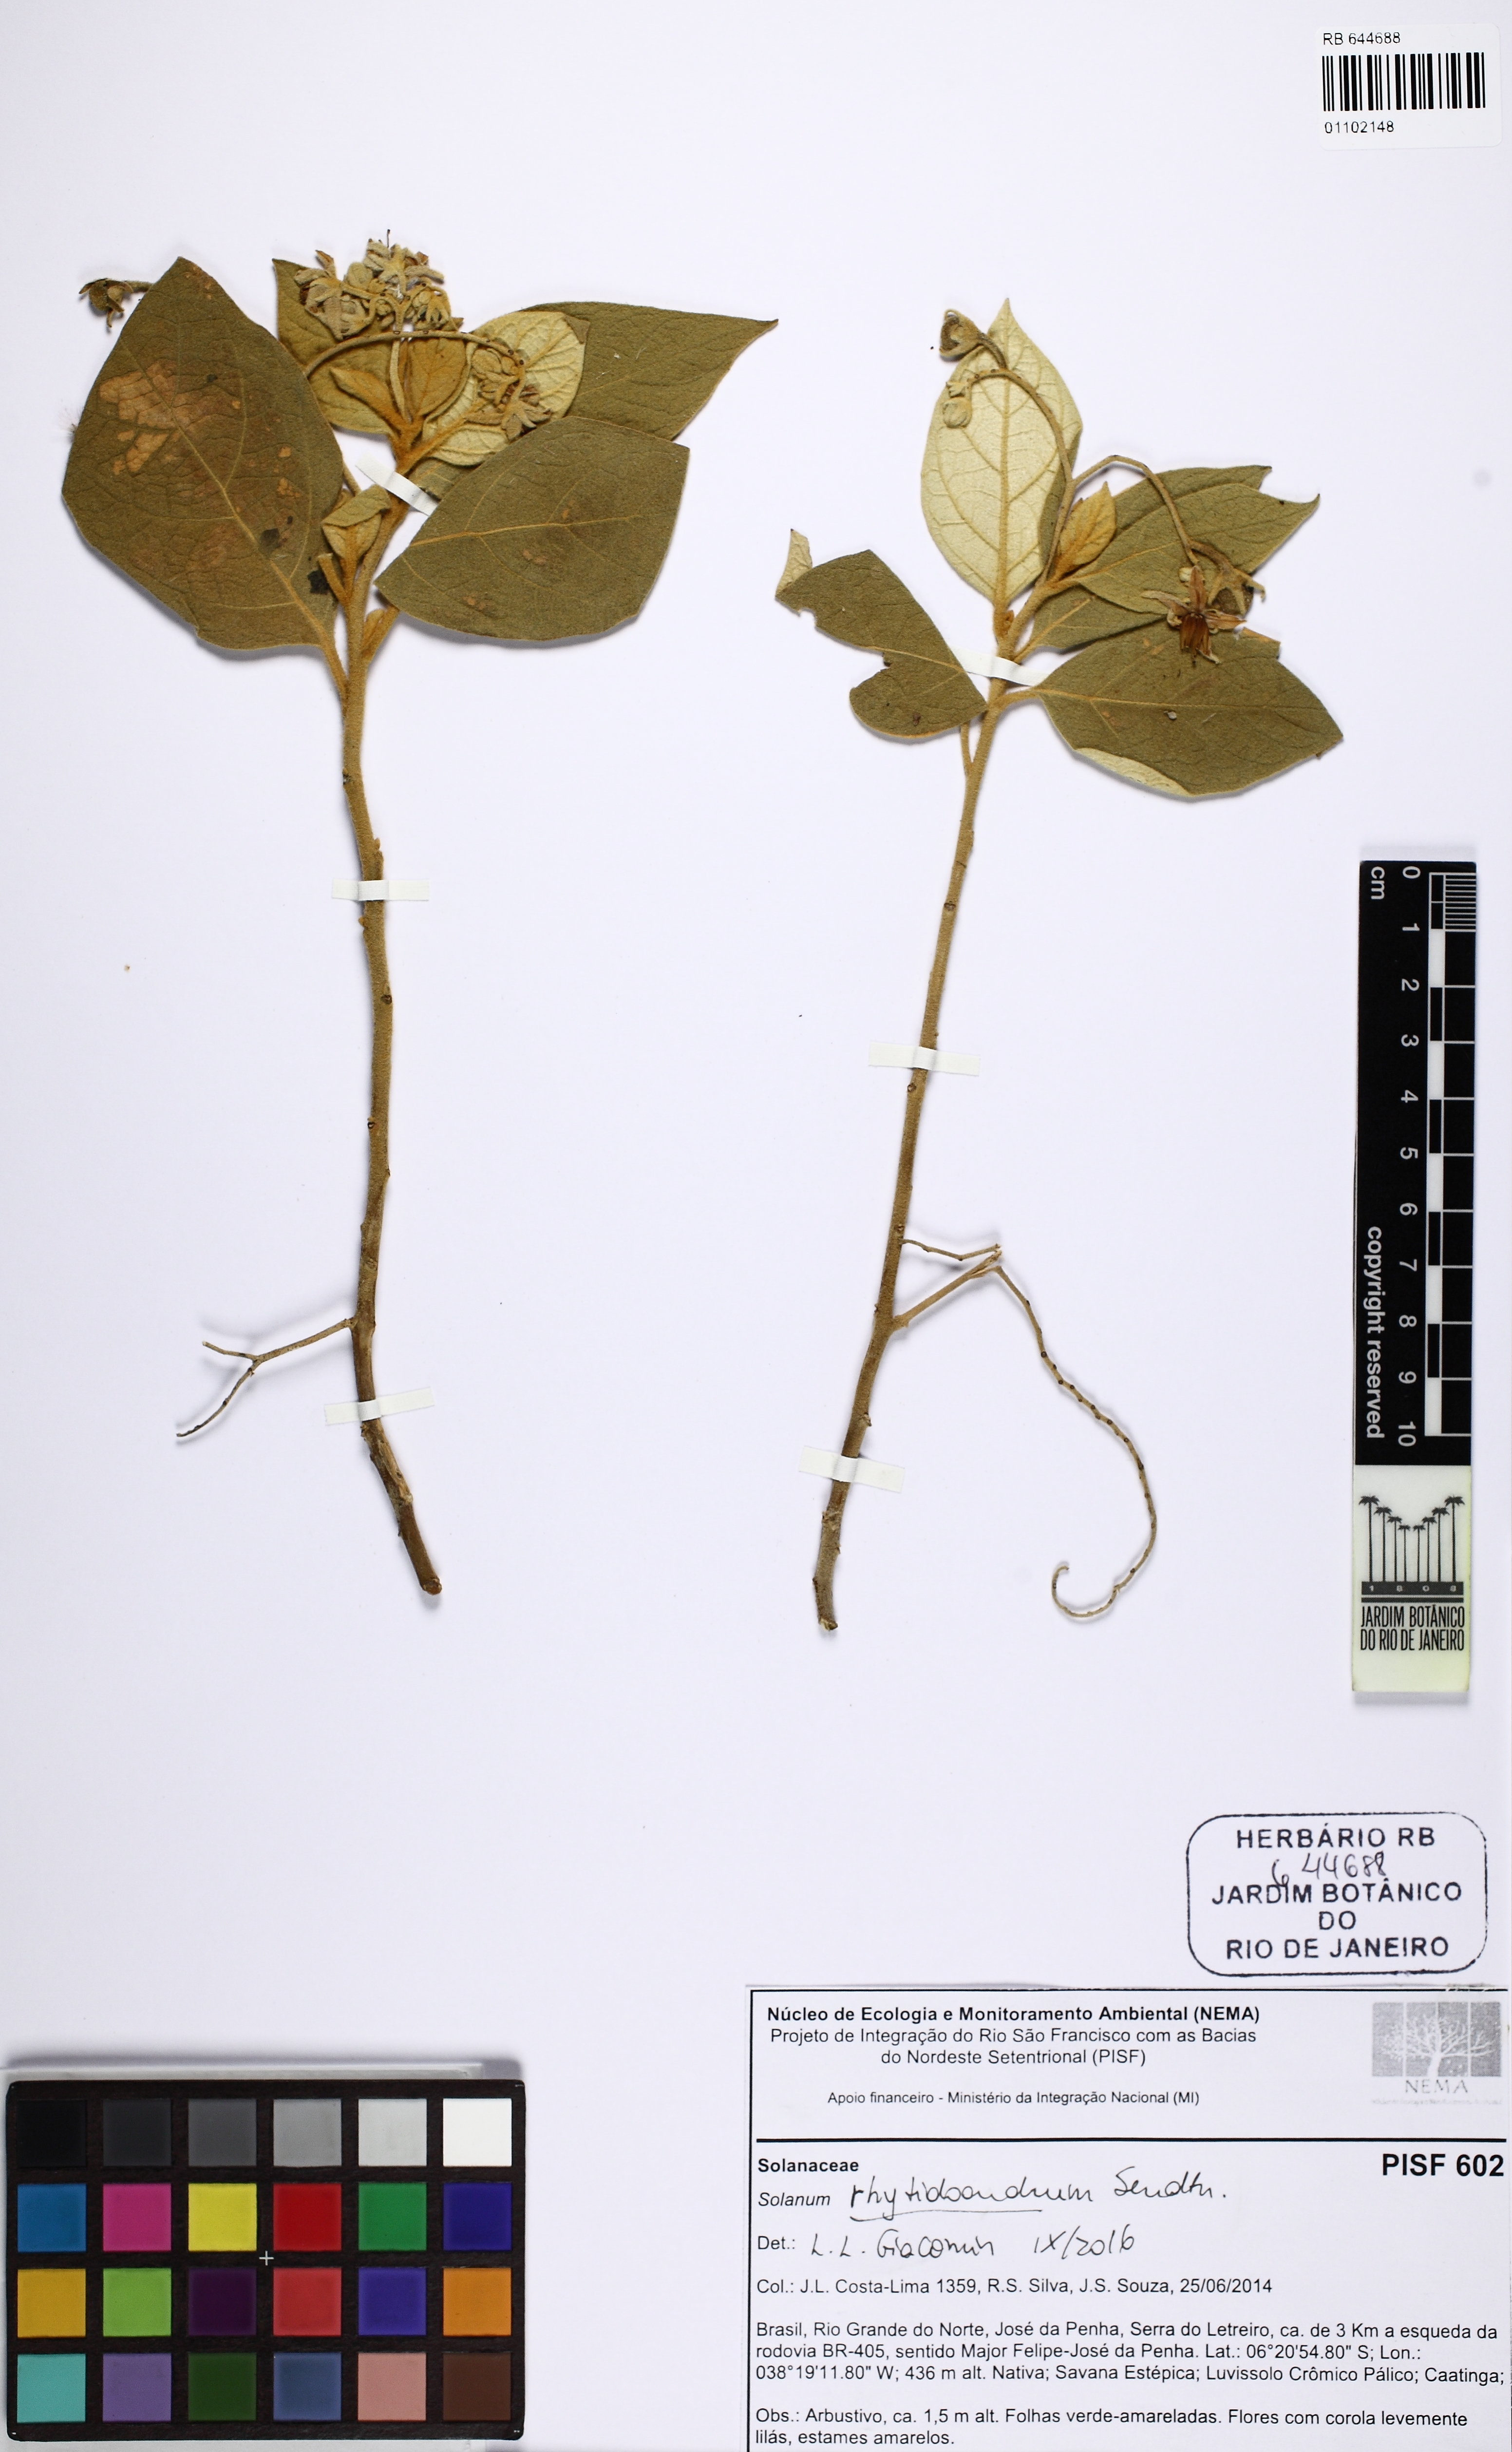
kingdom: Plantae
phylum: Tracheophyta
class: Magnoliopsida
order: Solanales
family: Solanaceae
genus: Solanum
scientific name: Solanum rhytidoandrum
